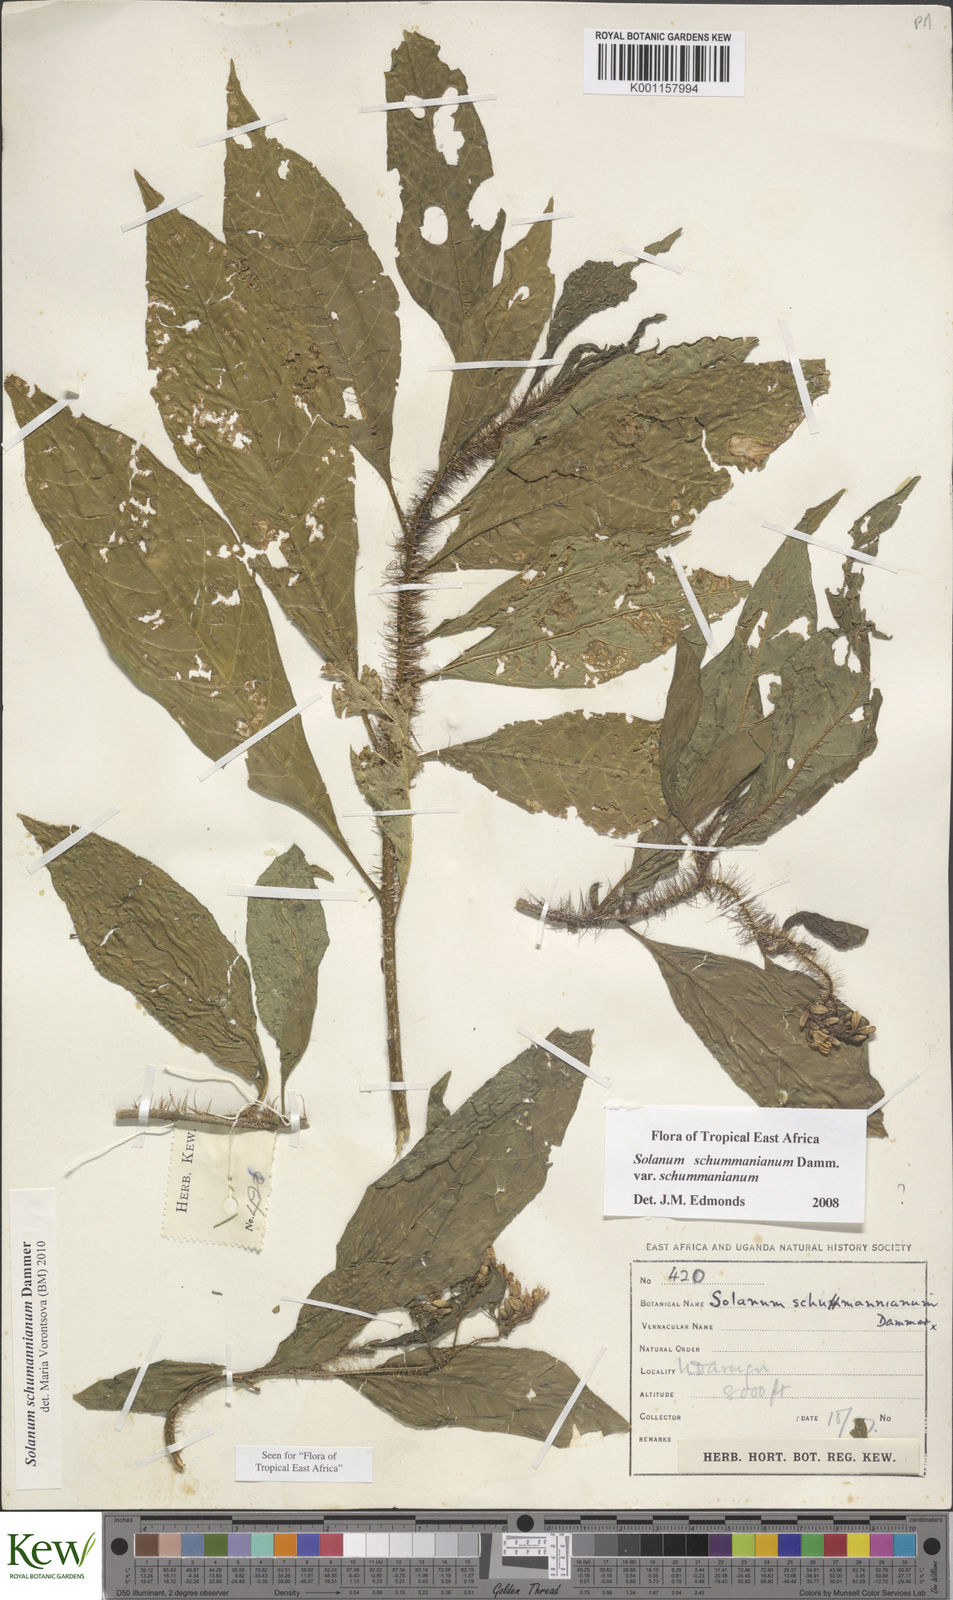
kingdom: Plantae
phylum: Tracheophyta
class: Magnoliopsida
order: Solanales
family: Solanaceae
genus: Solanum
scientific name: Solanum schumannianum
